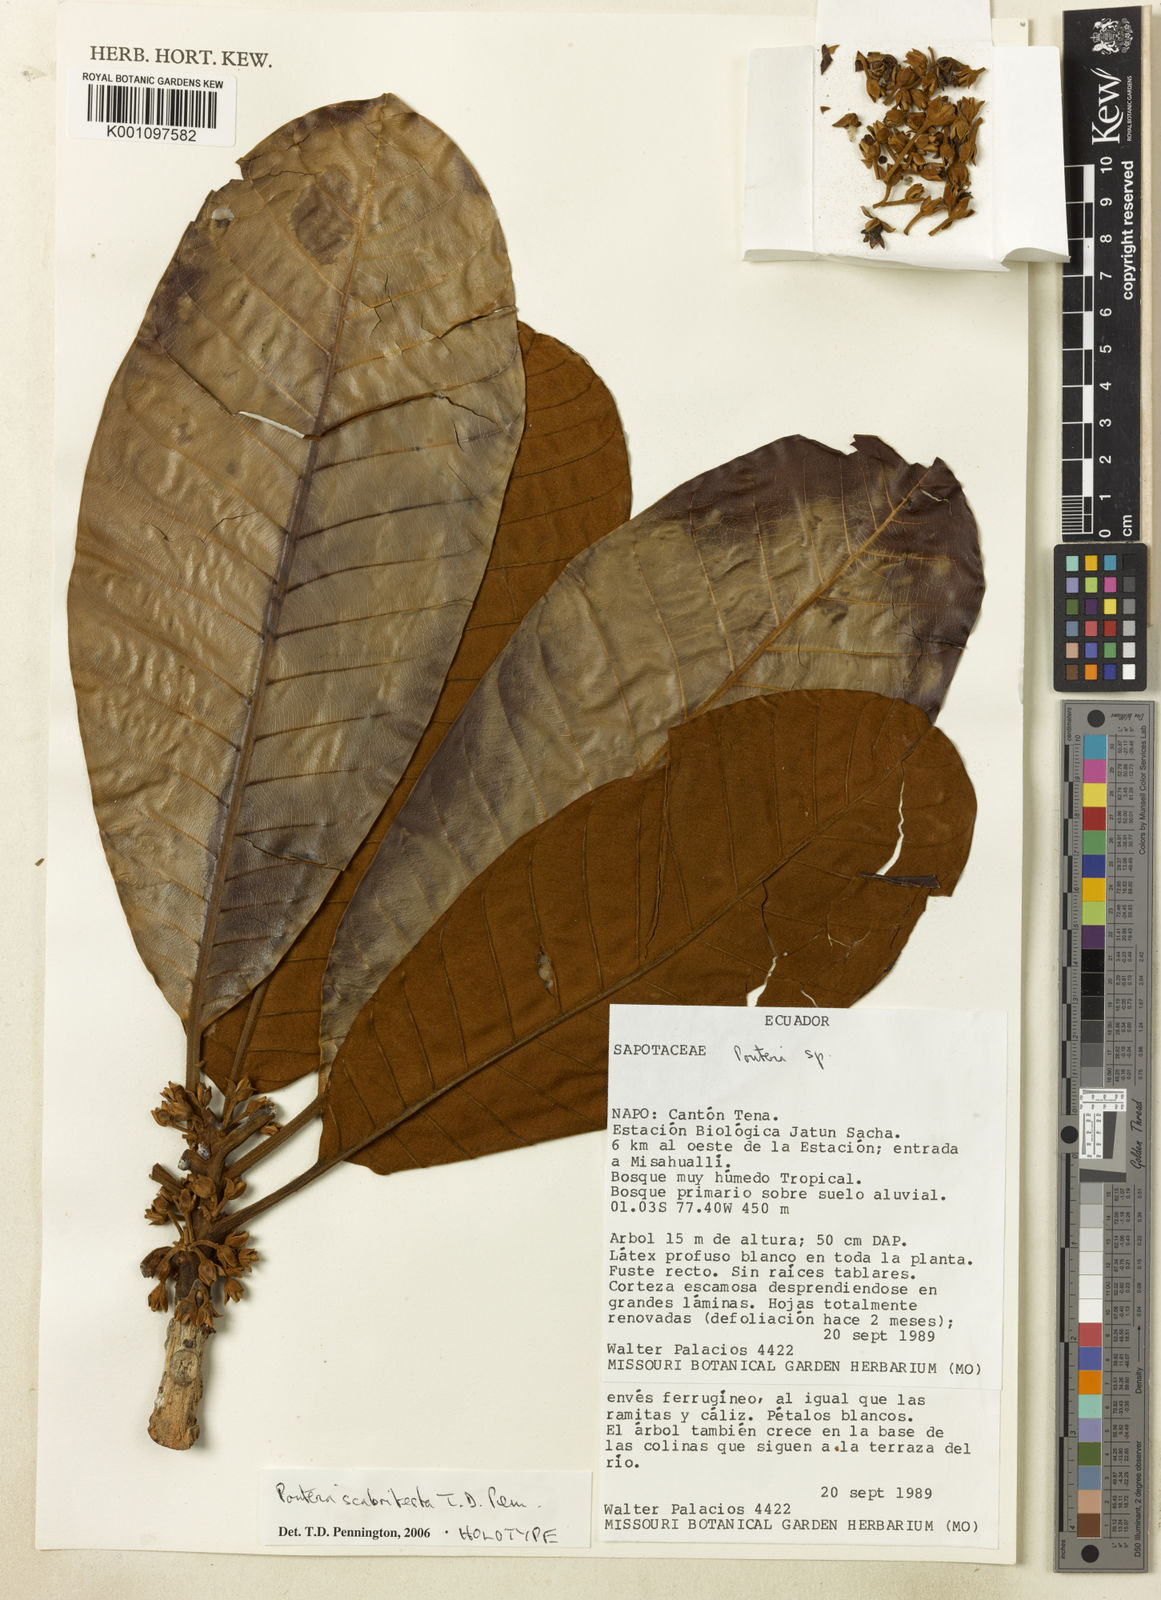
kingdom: Plantae
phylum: Tracheophyta
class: Magnoliopsida
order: Ericales
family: Sapotaceae
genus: Pouteria
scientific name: Pouteria scabritesta
